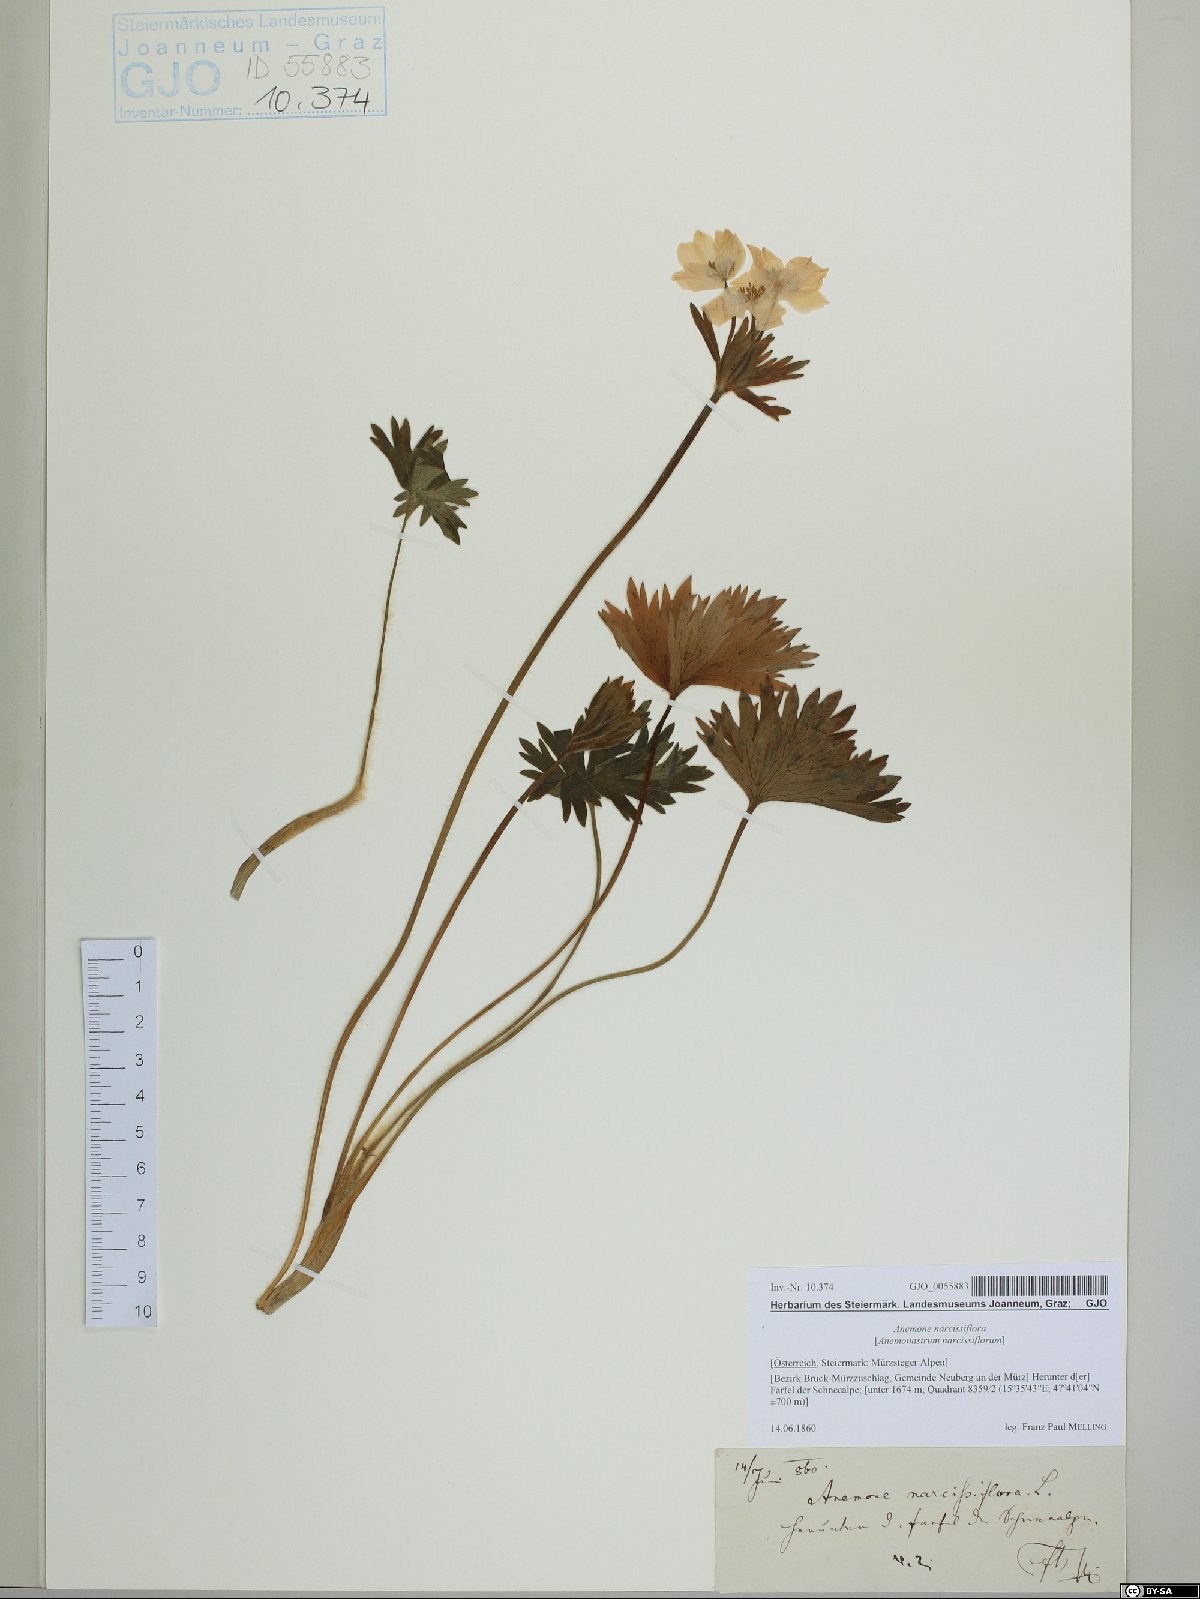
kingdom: Plantae
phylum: Tracheophyta
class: Magnoliopsida
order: Ranunculales
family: Ranunculaceae
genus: Anemonastrum
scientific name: Anemonastrum narcissiflorum
